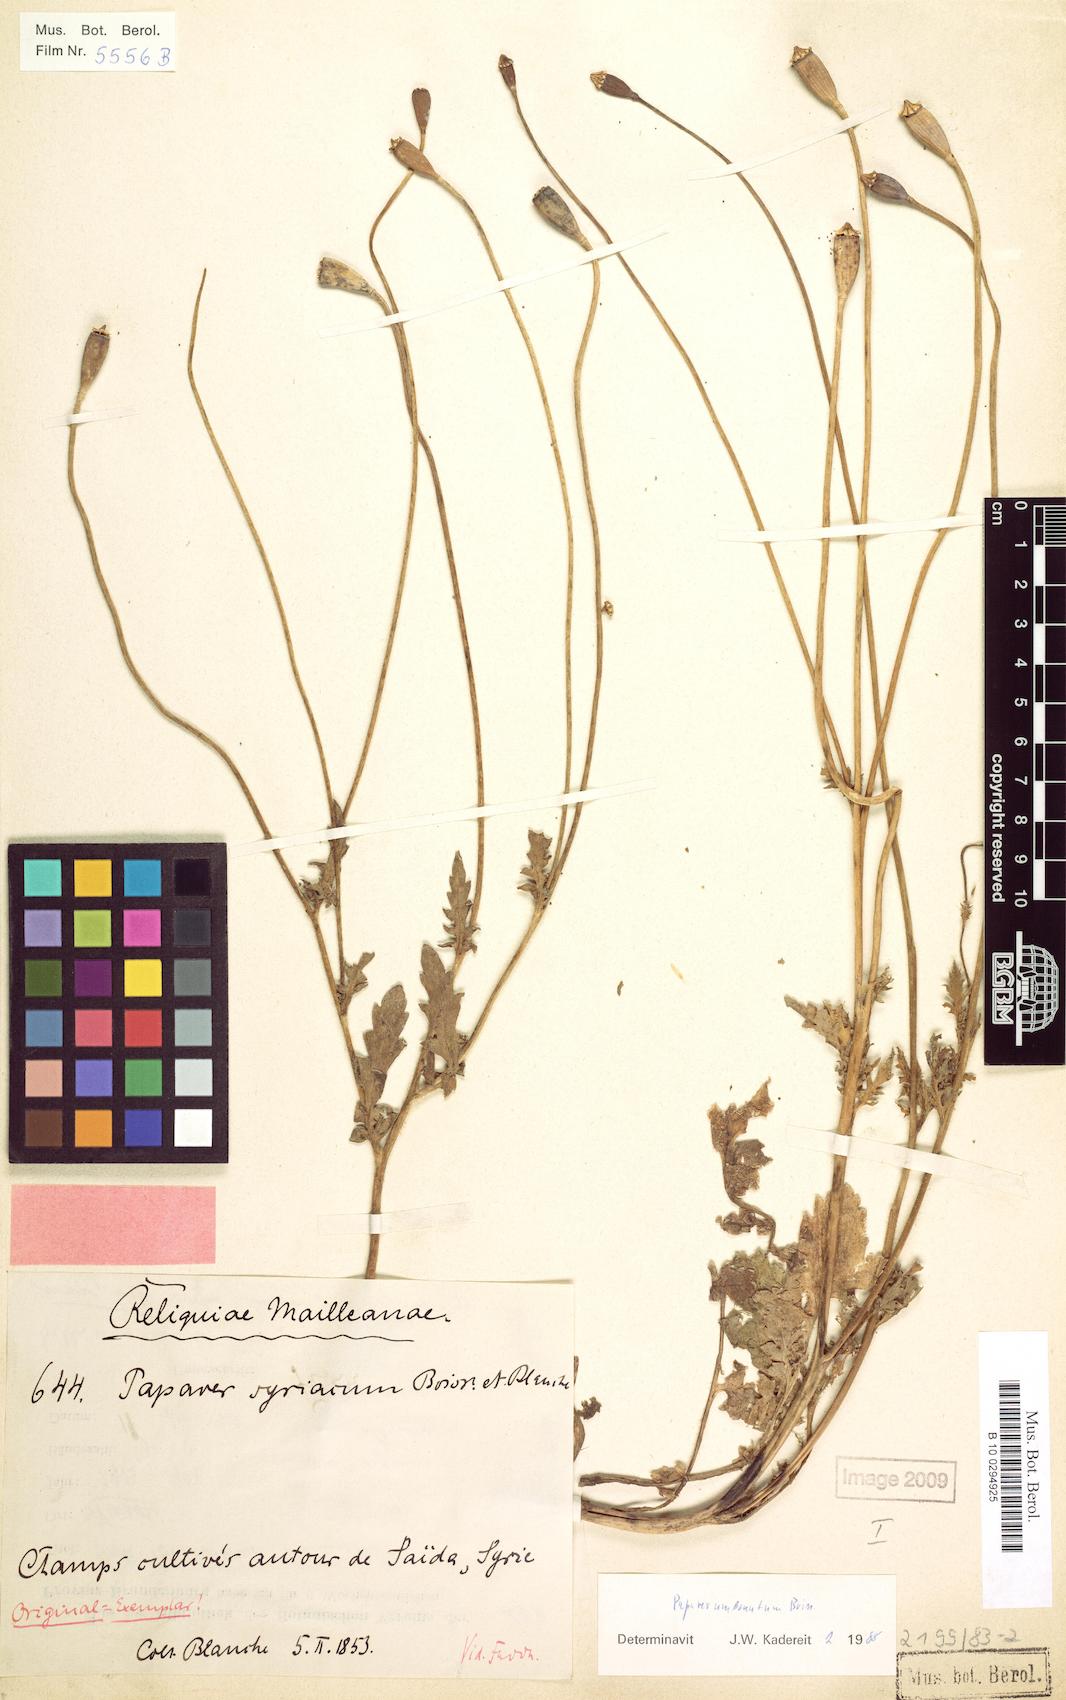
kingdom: Plantae
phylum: Tracheophyta
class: Magnoliopsida
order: Ranunculales
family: Papaveraceae
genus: Papaver
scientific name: Papaver umbonatum
